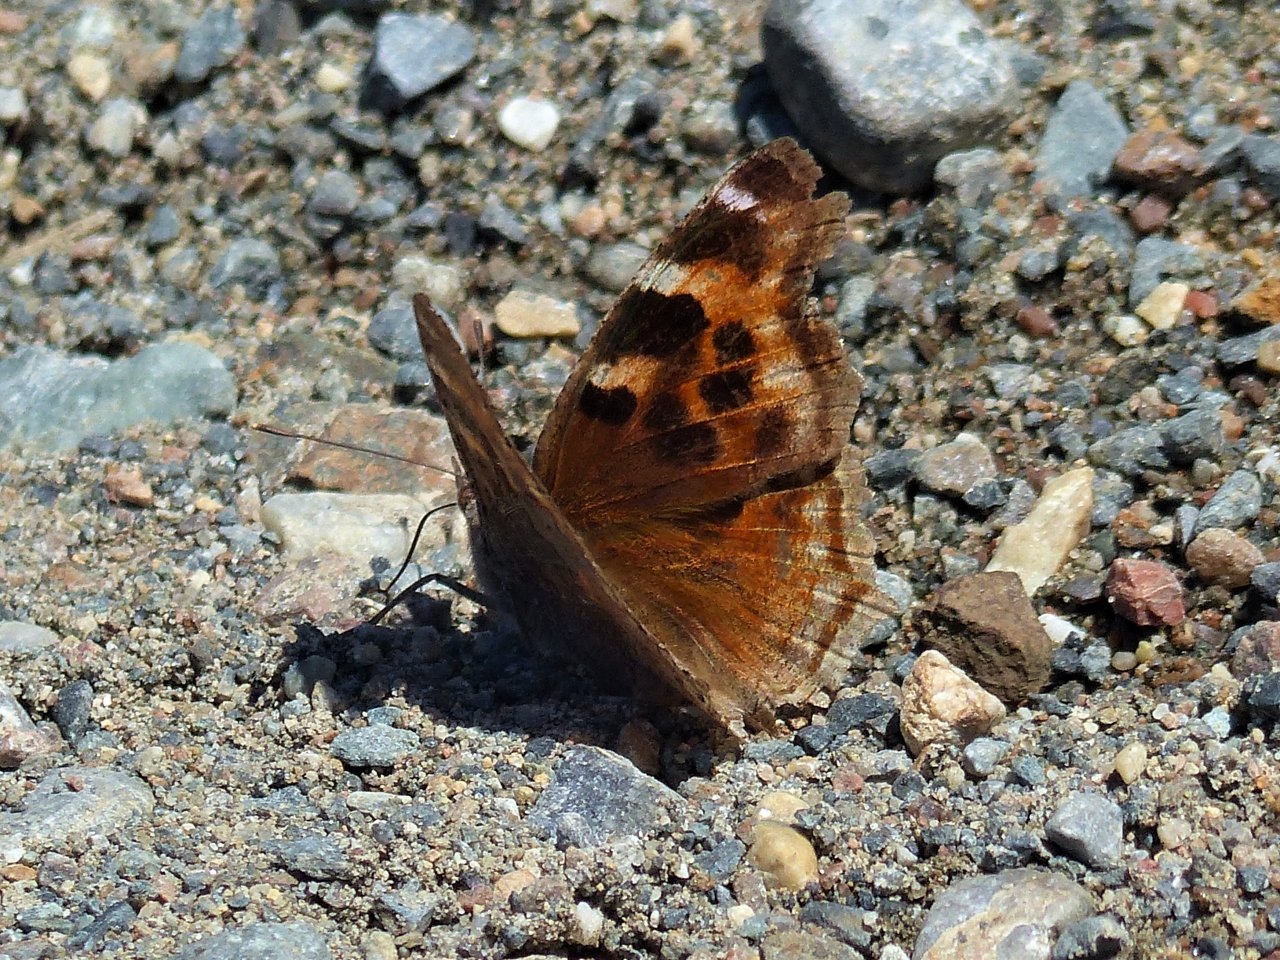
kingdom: Animalia
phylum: Arthropoda
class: Insecta
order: Lepidoptera
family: Nymphalidae
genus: Polygonia
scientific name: Polygonia vaualbum
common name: Compton Tortoiseshell
